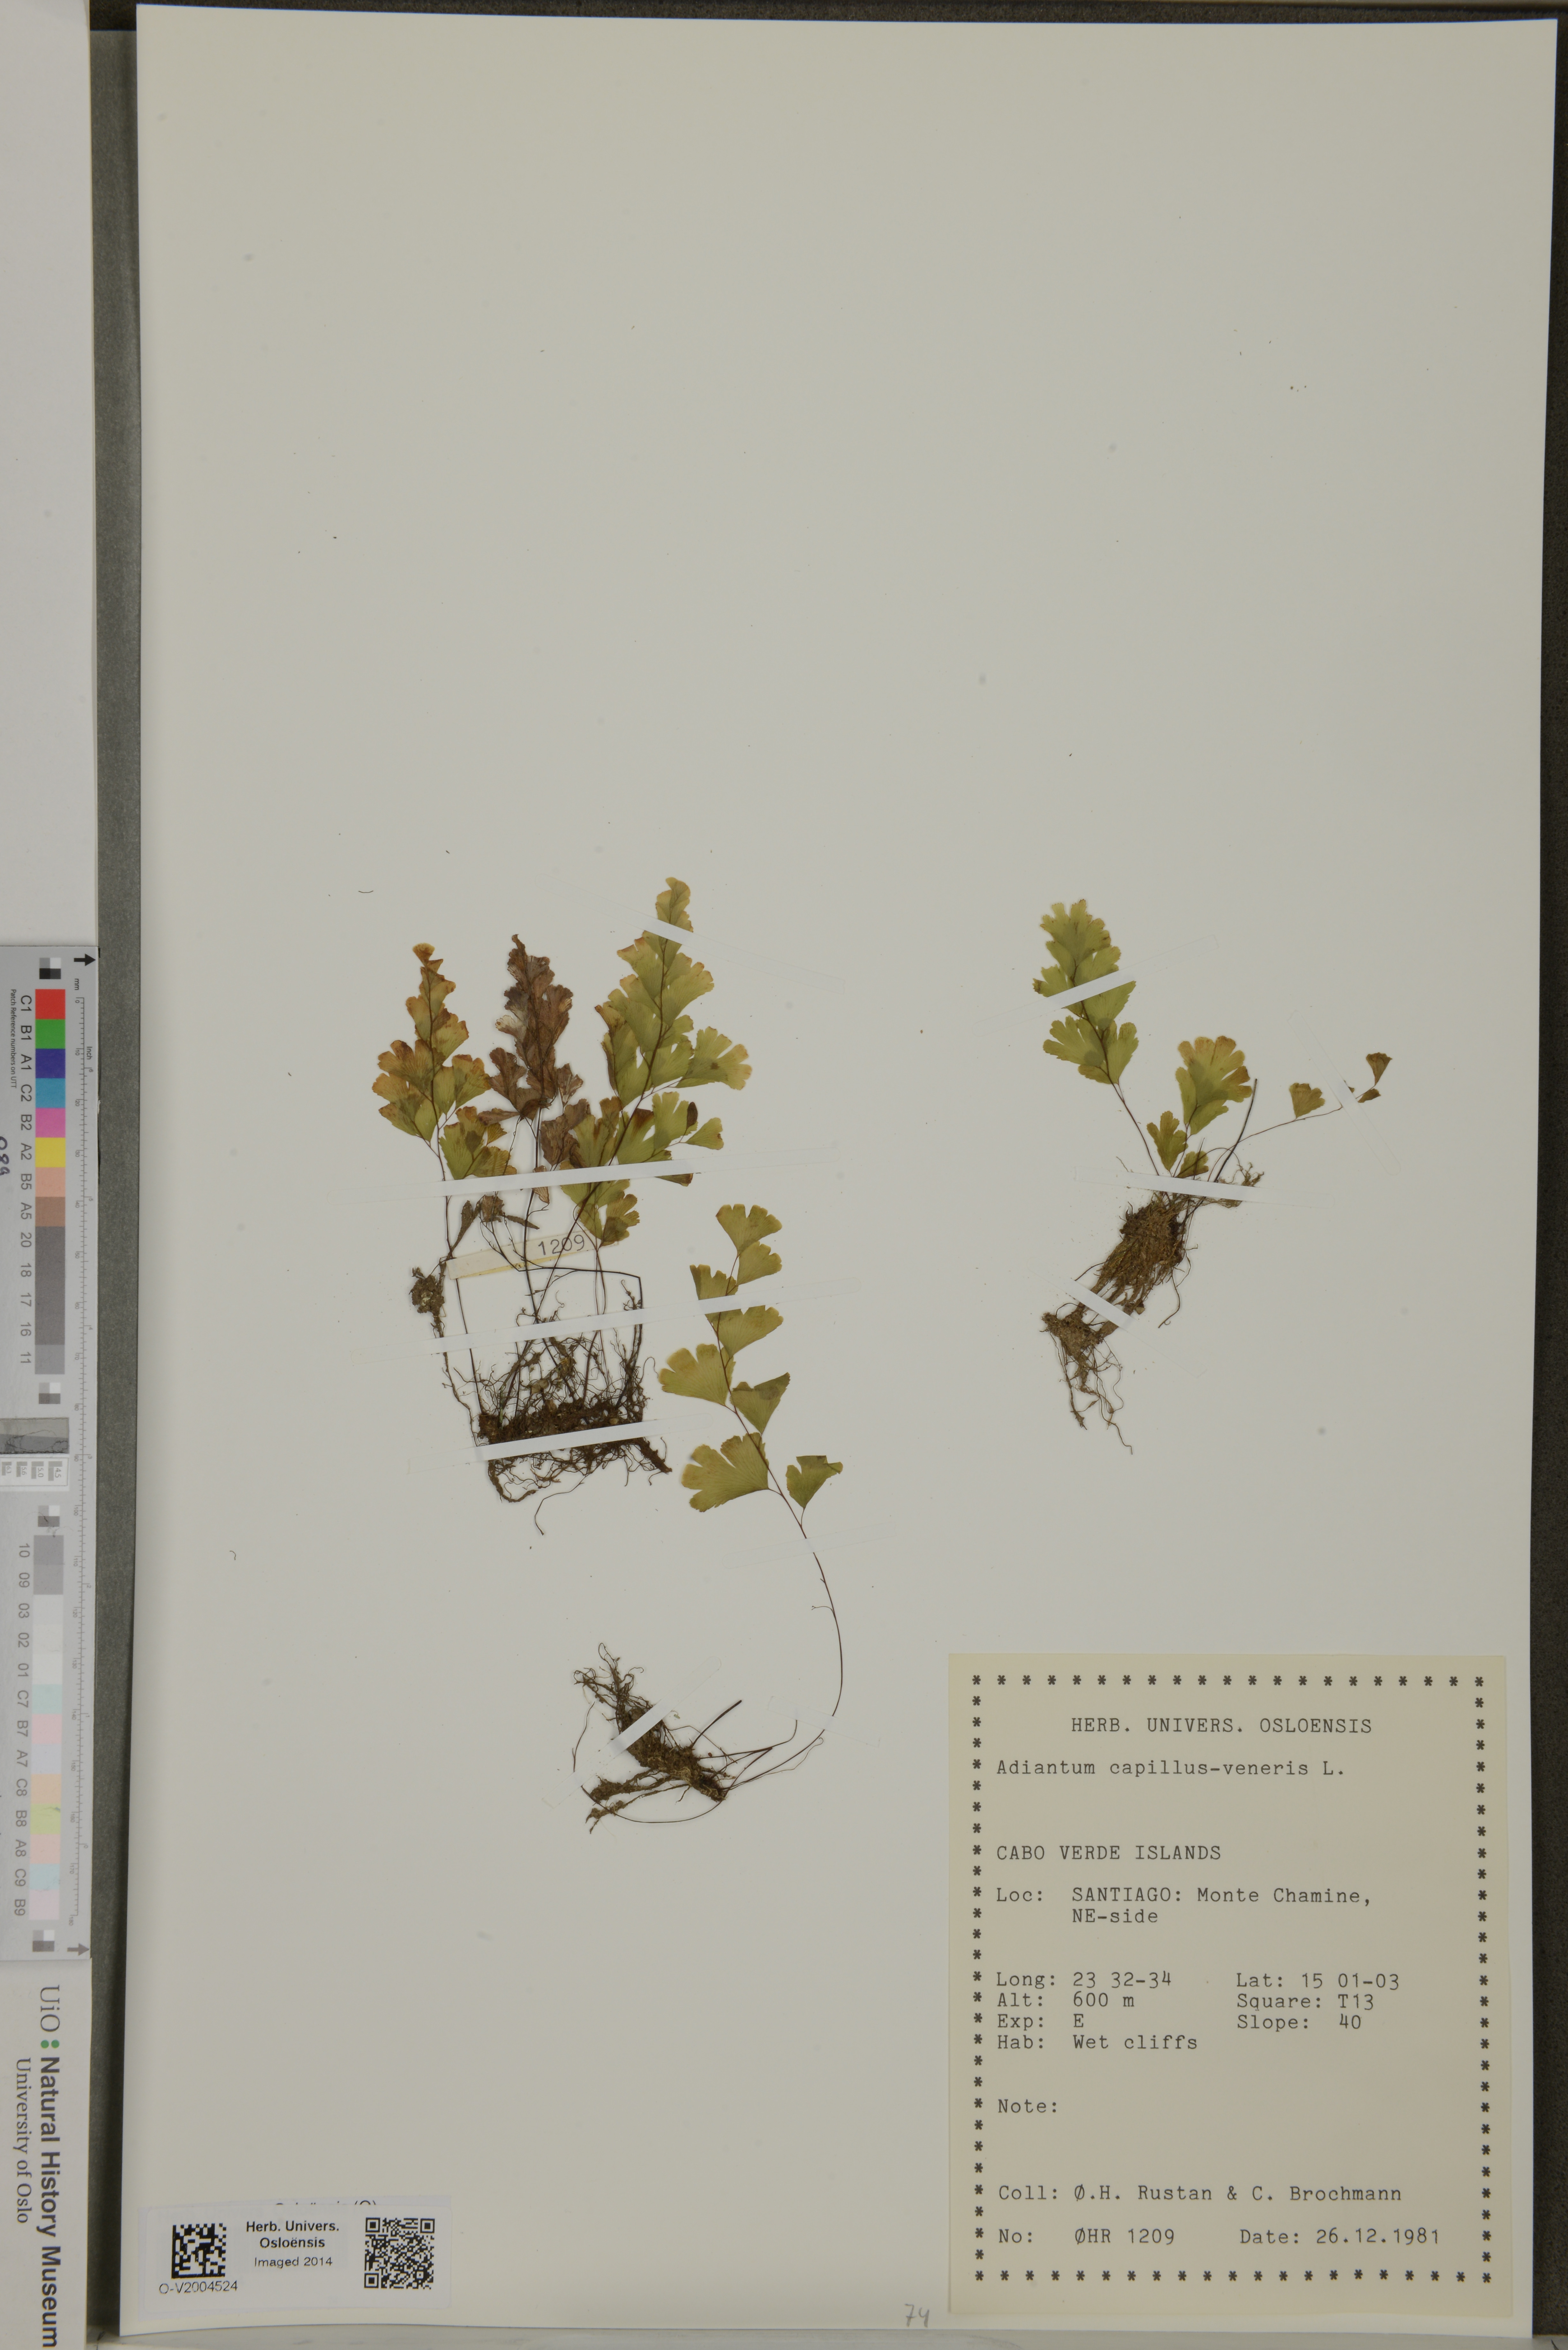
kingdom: Plantae
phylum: Tracheophyta
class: Polypodiopsida
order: Polypodiales
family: Pteridaceae
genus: Adiantum
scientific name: Adiantum capillus-veneris
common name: Maidenhair fern
